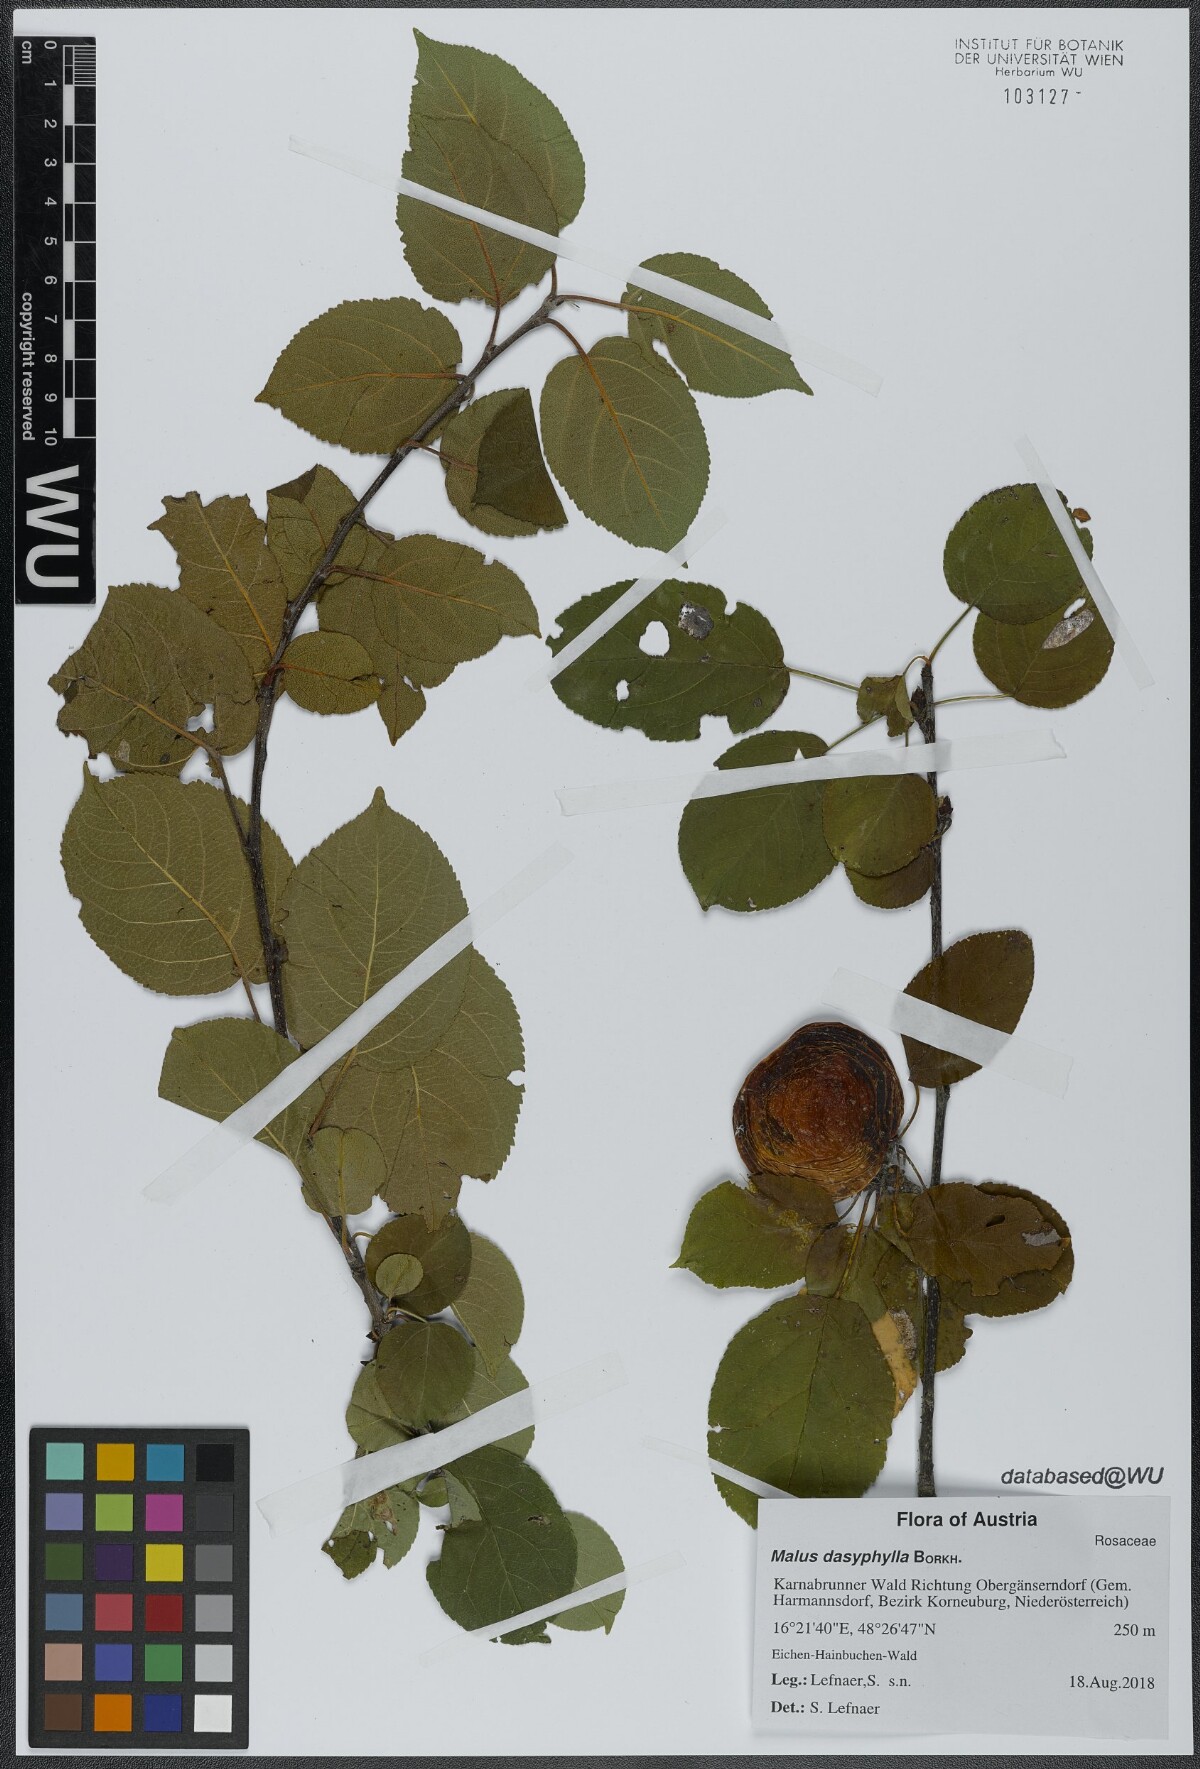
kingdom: Plantae
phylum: Tracheophyta
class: Magnoliopsida
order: Rosales
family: Rosaceae
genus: Malus
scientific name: Malus dasyphylla
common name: Paradise apple
